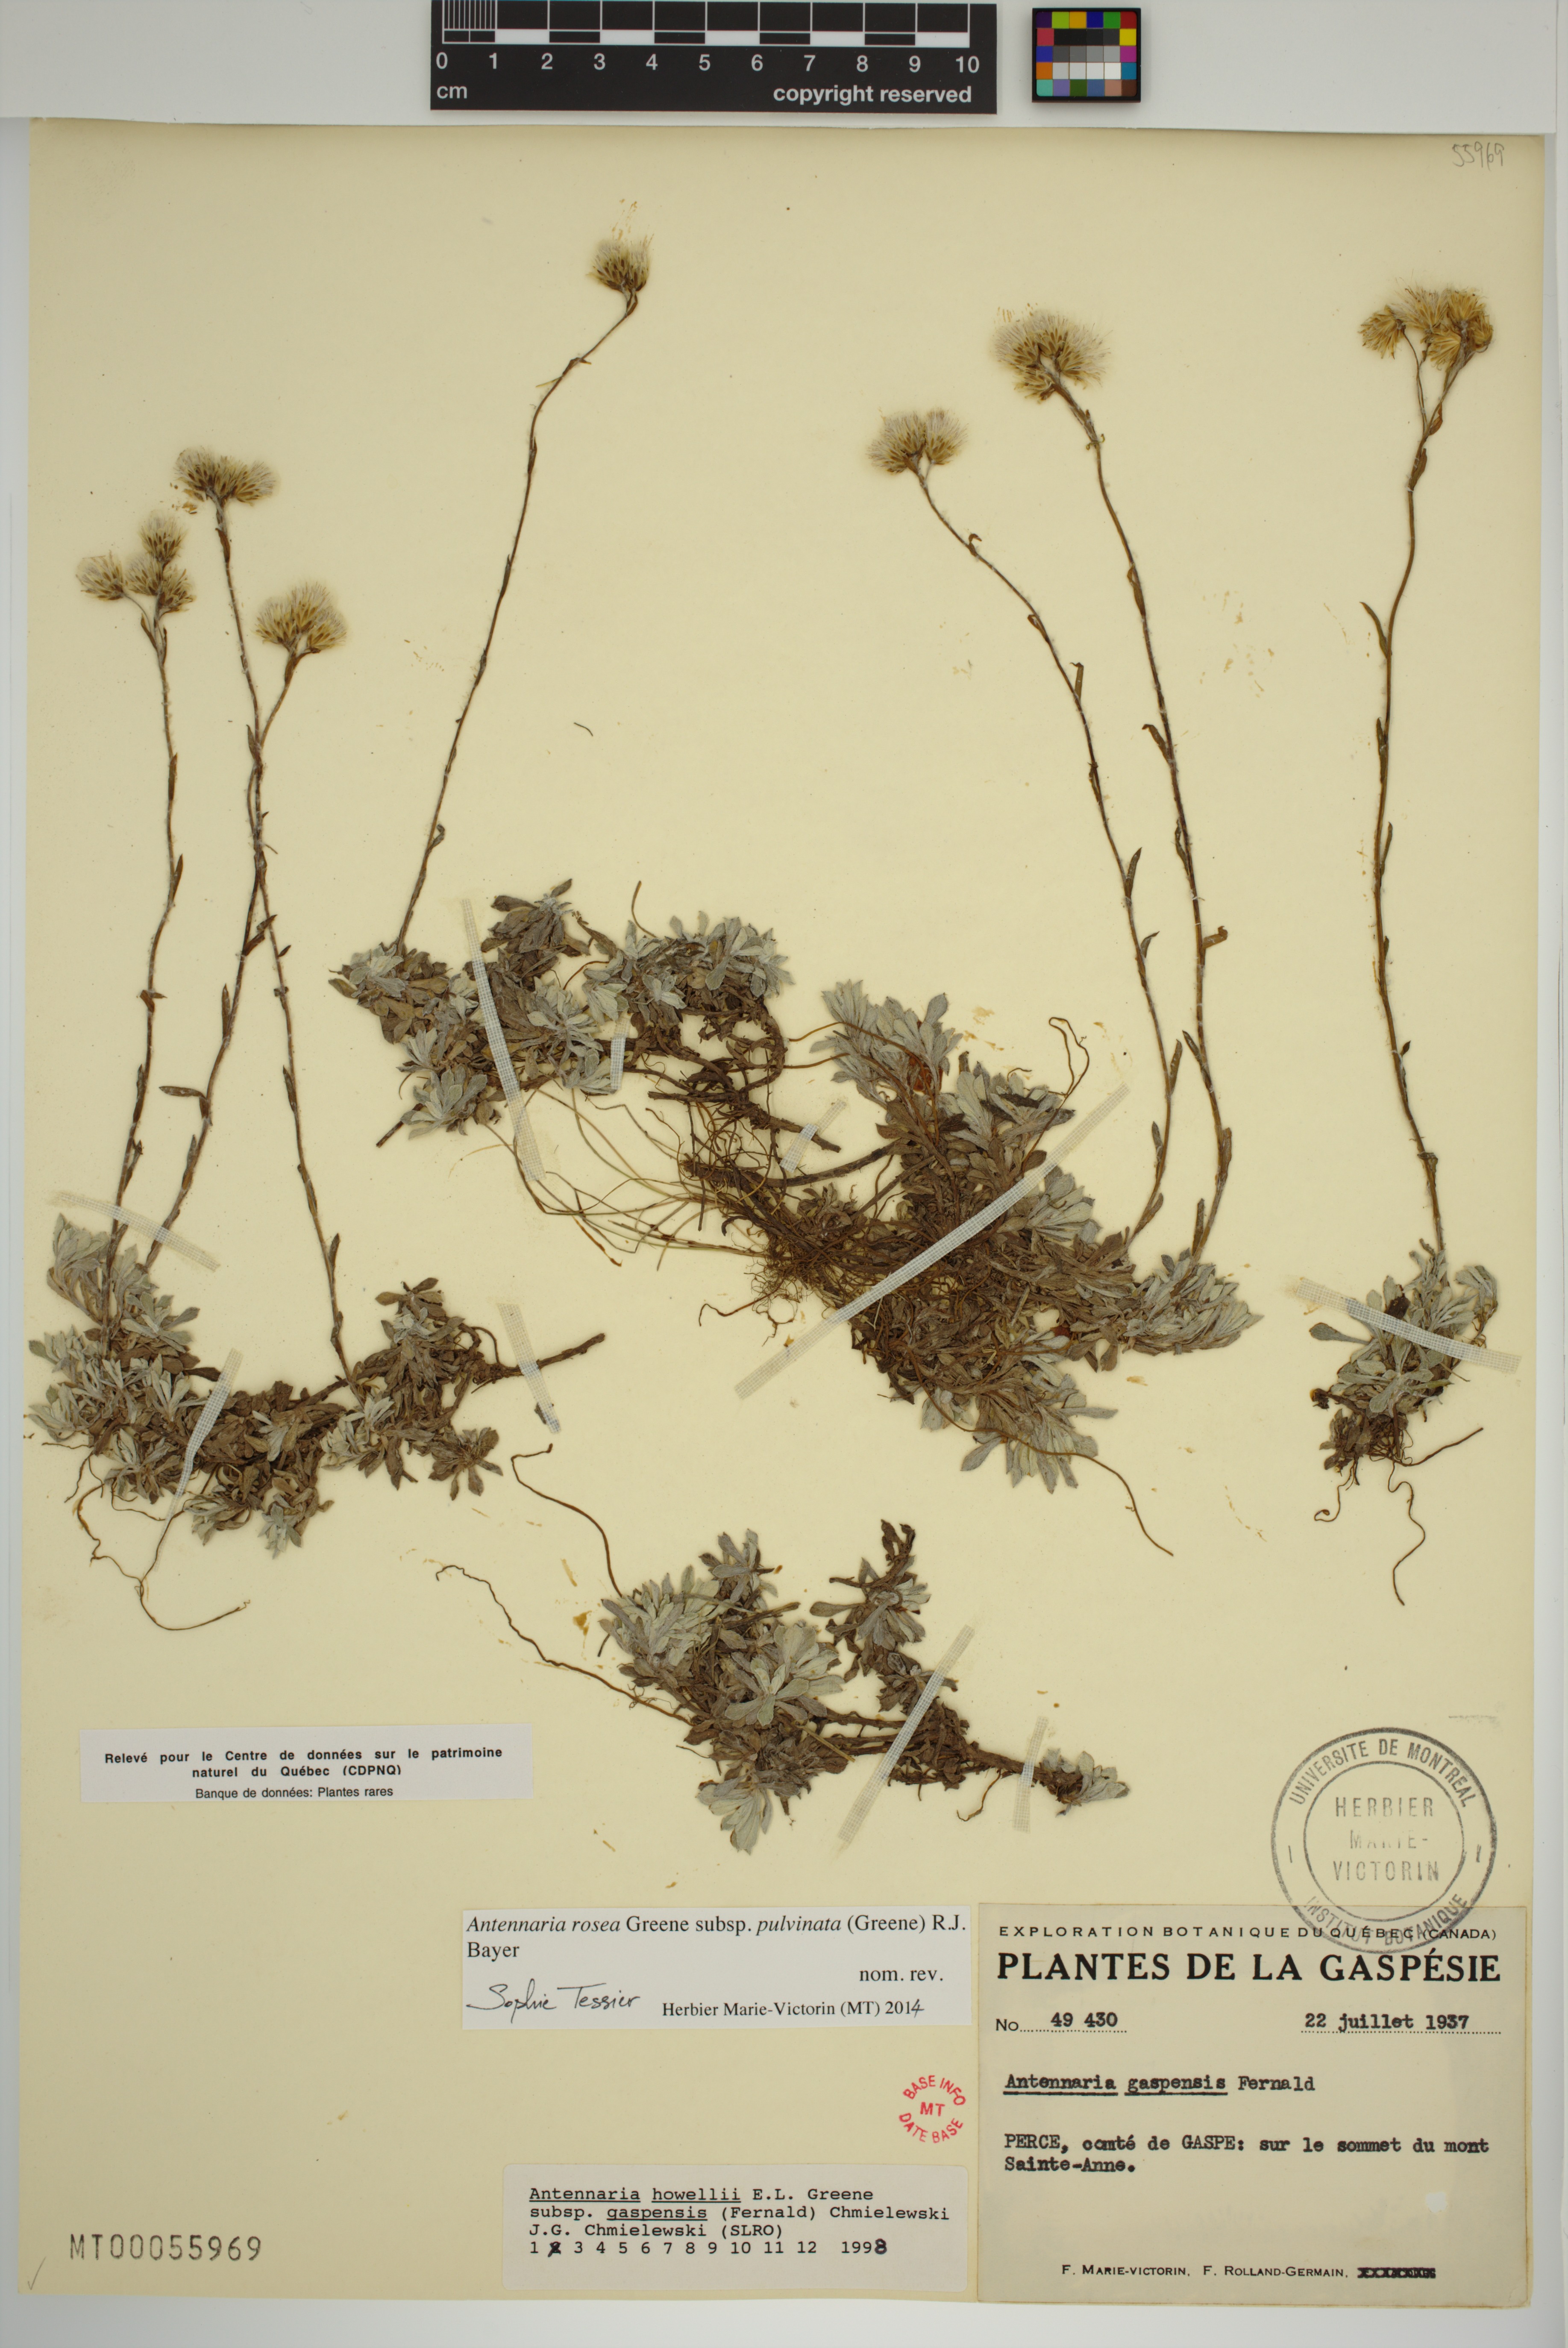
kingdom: Plantae
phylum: Tracheophyta
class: Magnoliopsida
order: Asterales
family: Asteraceae
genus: Antennaria
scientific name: Antennaria rosea
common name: Rosy pussytoes
